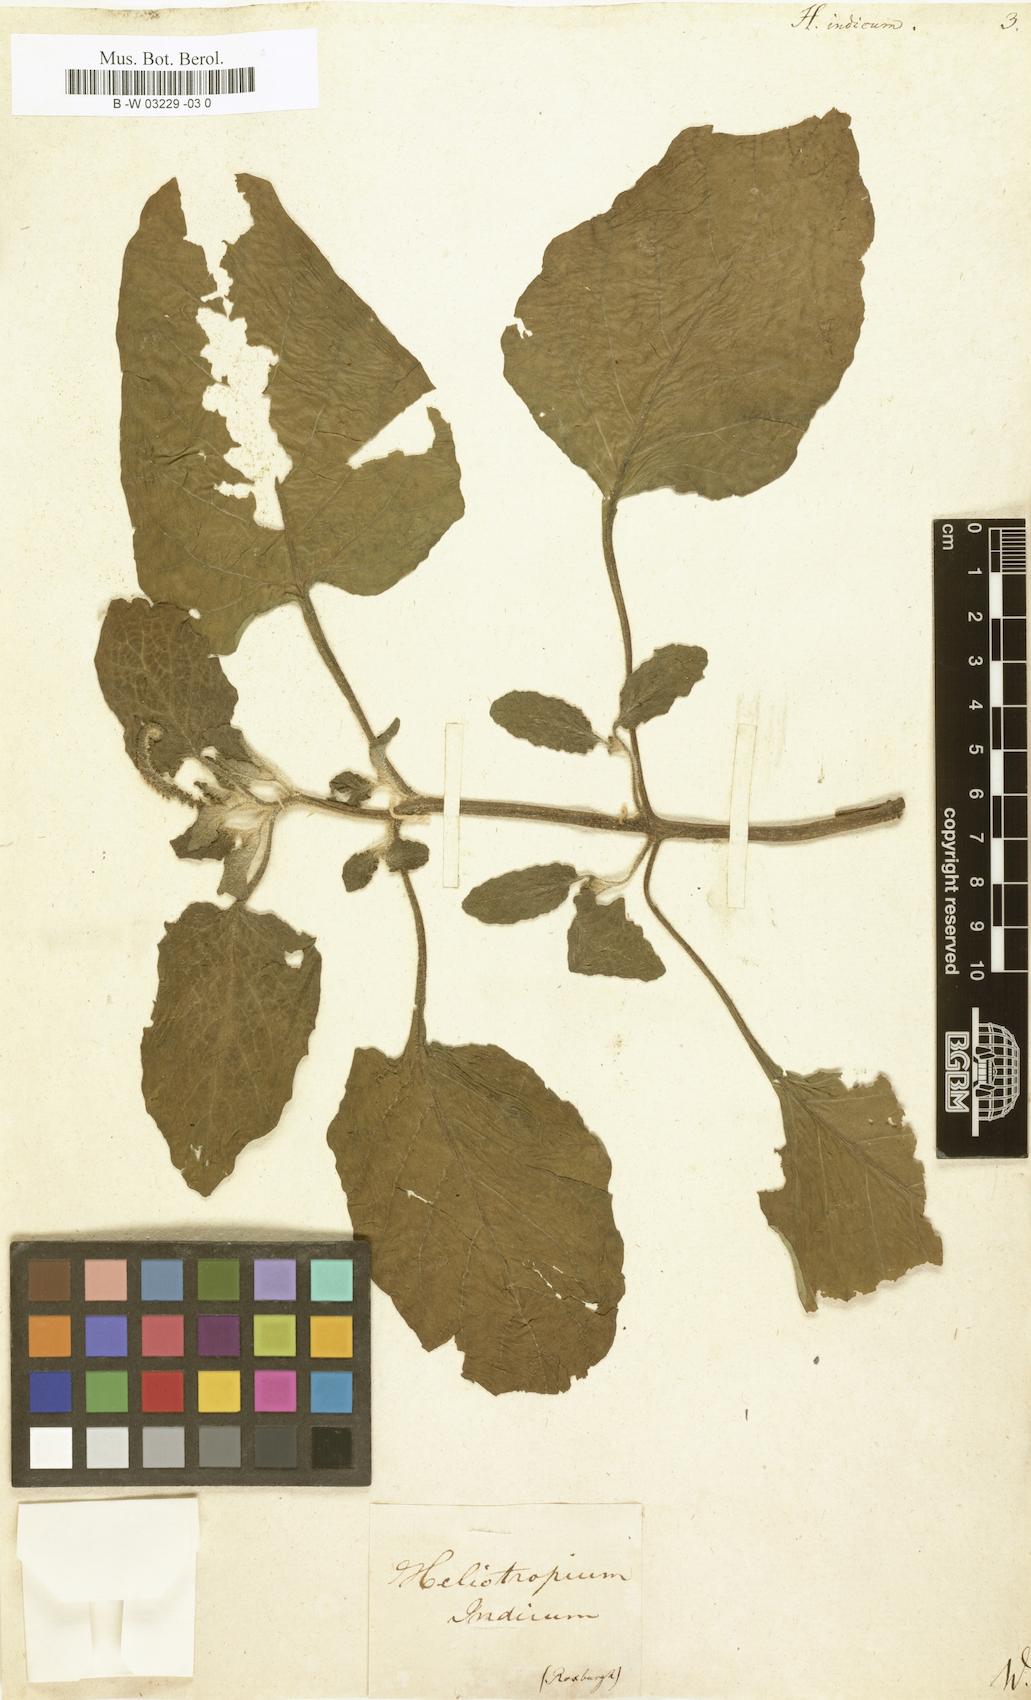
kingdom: Plantae
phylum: Tracheophyta
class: Magnoliopsida
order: Boraginales
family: Heliotropiaceae
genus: Heliotropium
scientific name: Heliotropium indicum
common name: Indian heliotrope
